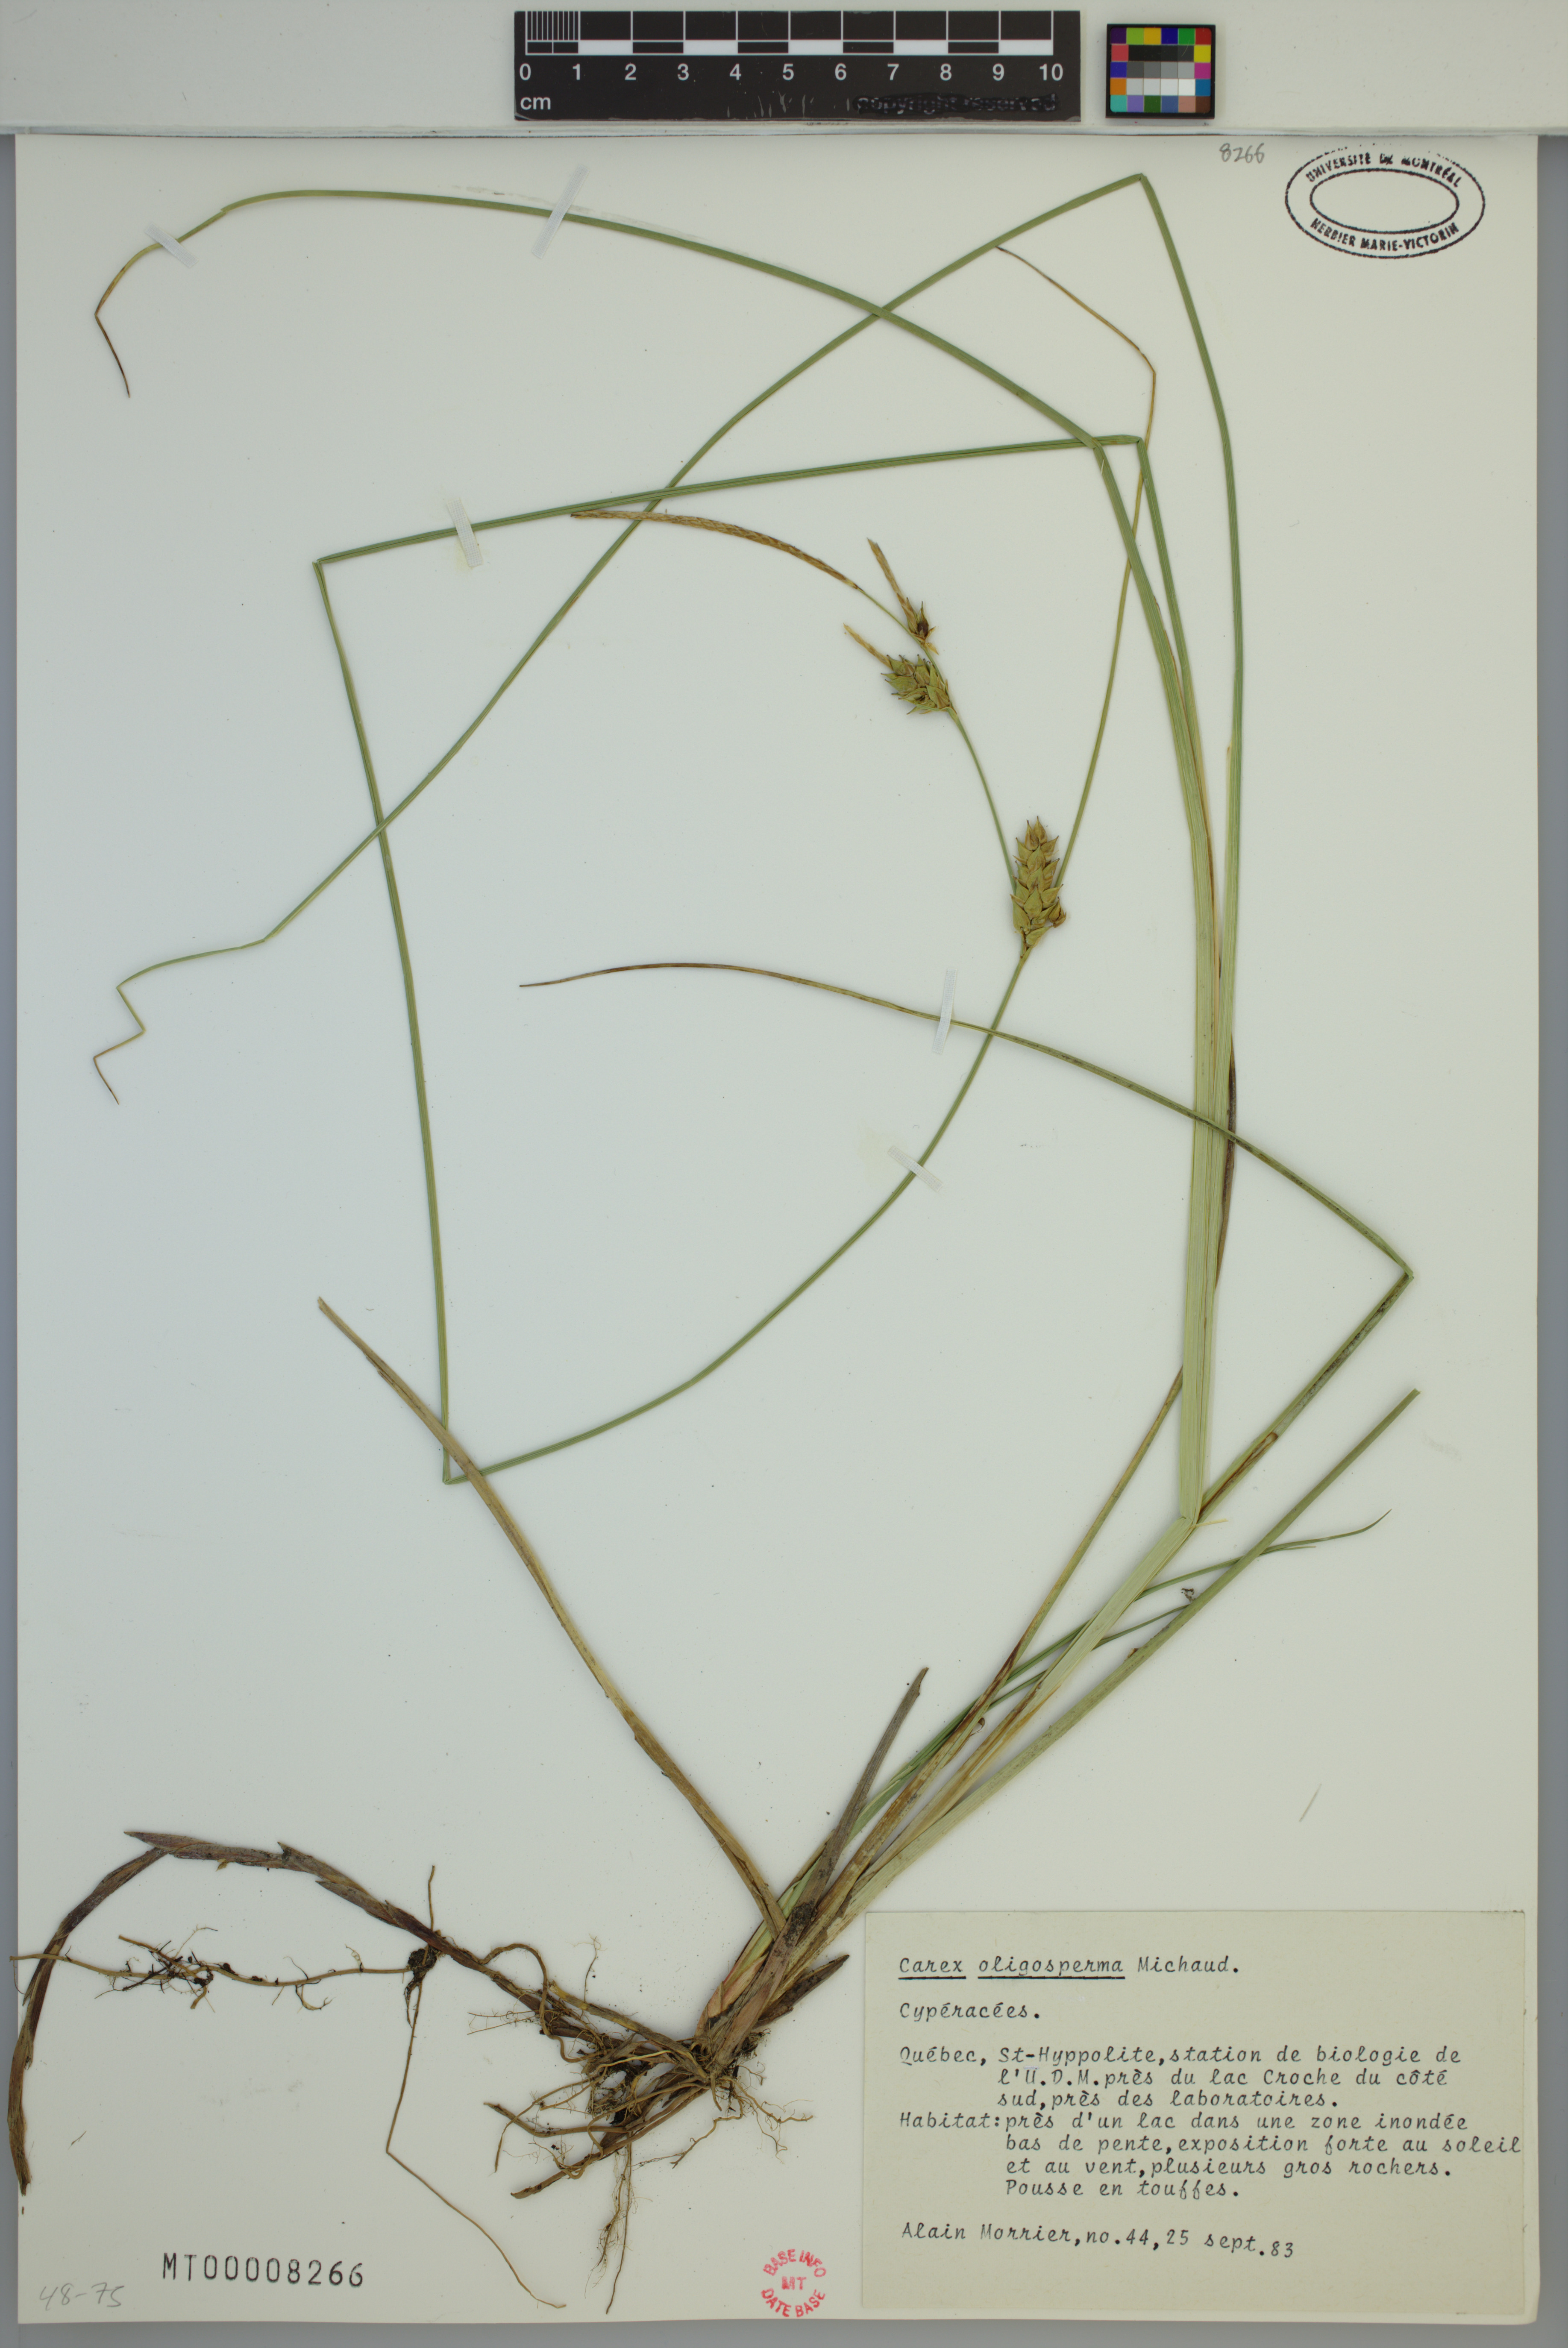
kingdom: Plantae
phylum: Tracheophyta
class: Liliopsida
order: Poales
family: Cyperaceae
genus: Carex
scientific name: Carex oligosperma
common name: Few-seed sedge
